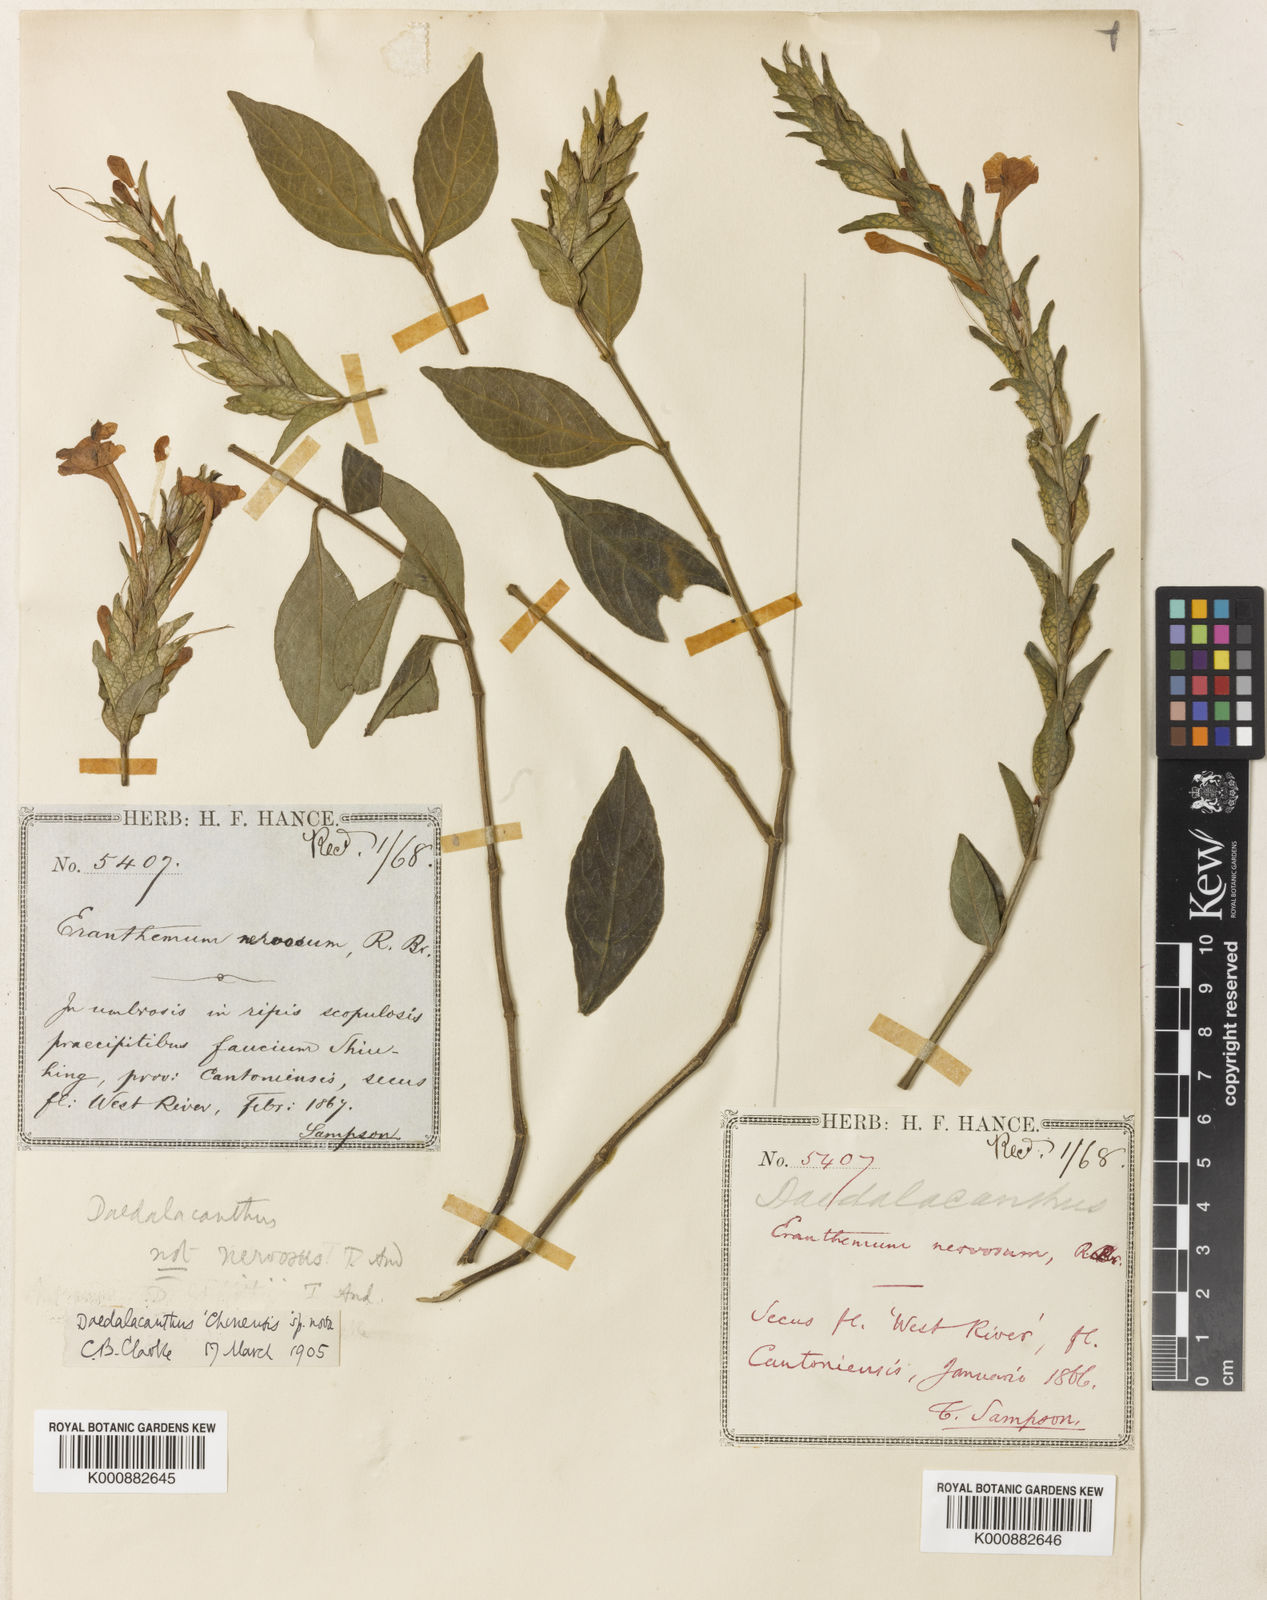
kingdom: Plantae
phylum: Tracheophyta
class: Magnoliopsida
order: Lamiales
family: Acanthaceae
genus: Eranthemum
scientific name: Eranthemum ciliatum
